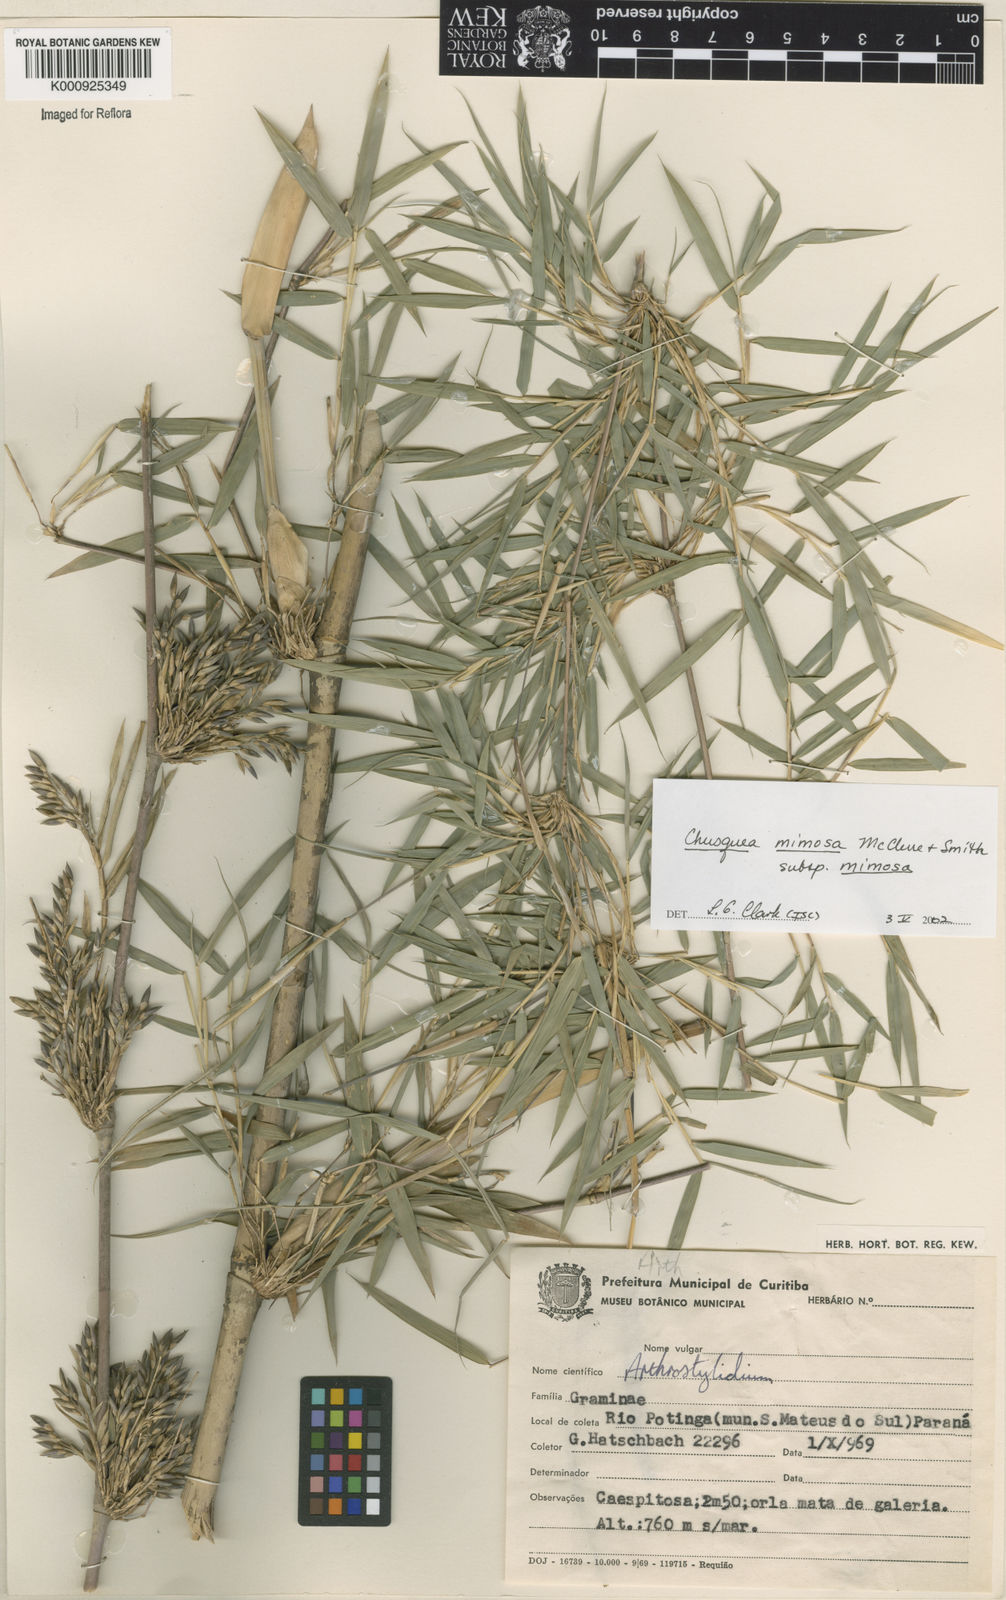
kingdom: Plantae
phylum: Tracheophyta
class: Liliopsida
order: Poales
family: Poaceae
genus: Chusquea
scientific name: Chusquea mimosa
